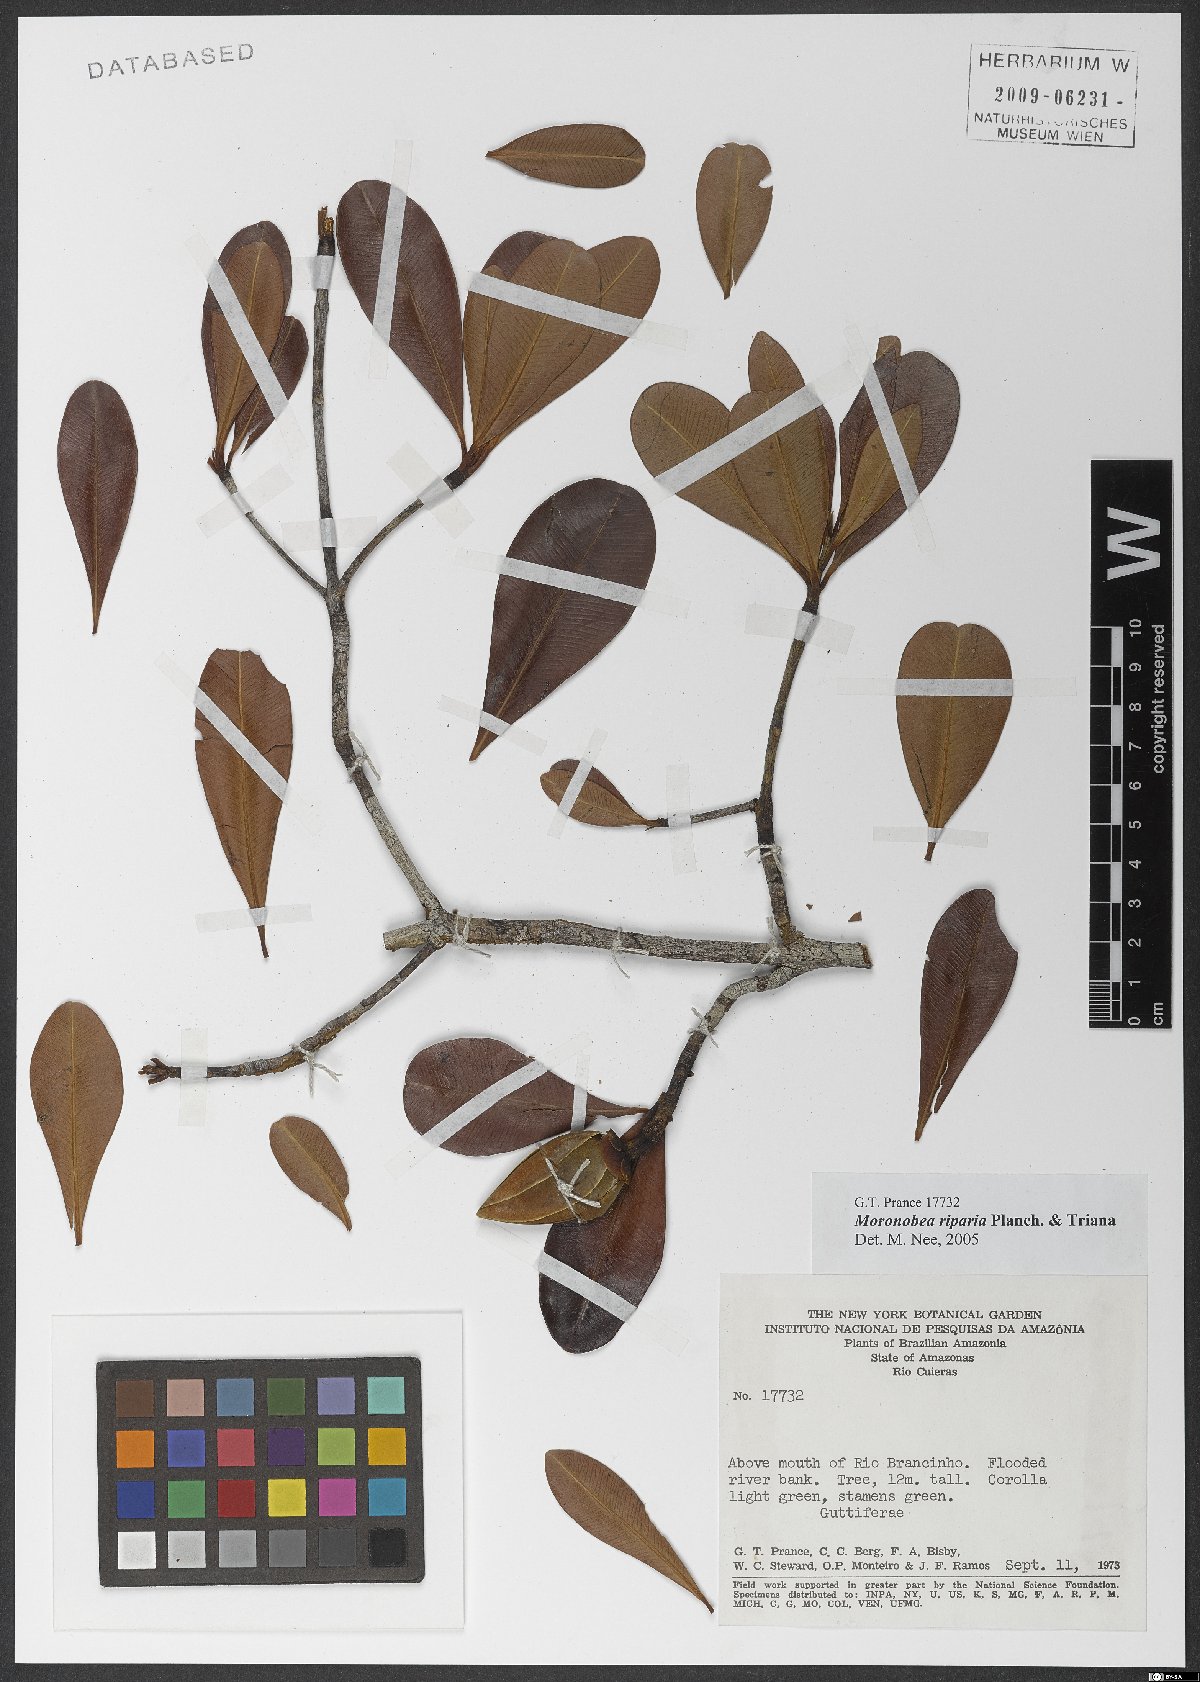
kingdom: Plantae
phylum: Tracheophyta
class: Magnoliopsida
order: Malpighiales
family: Clusiaceae
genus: Moronobea
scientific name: Moronobea riparia
